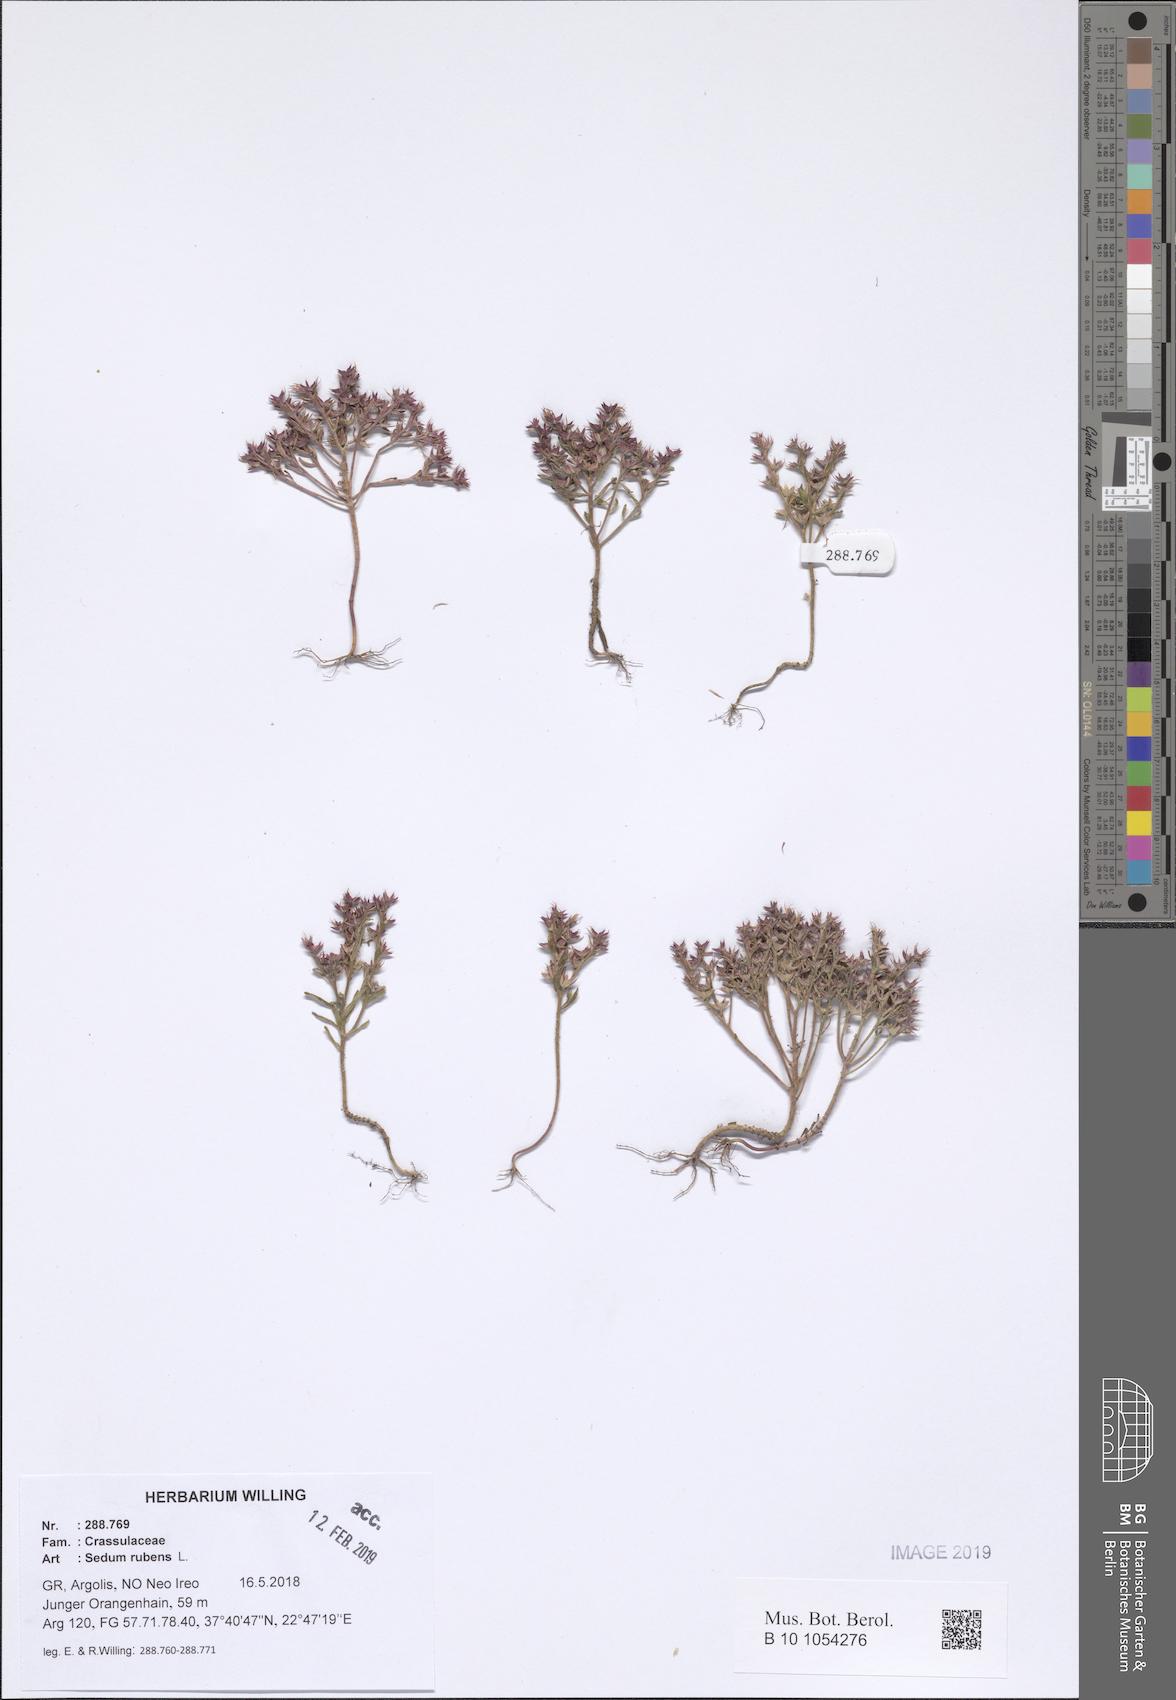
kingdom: Plantae
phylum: Tracheophyta
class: Magnoliopsida
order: Saxifragales
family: Crassulaceae
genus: Sedum
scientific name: Sedum rubens
